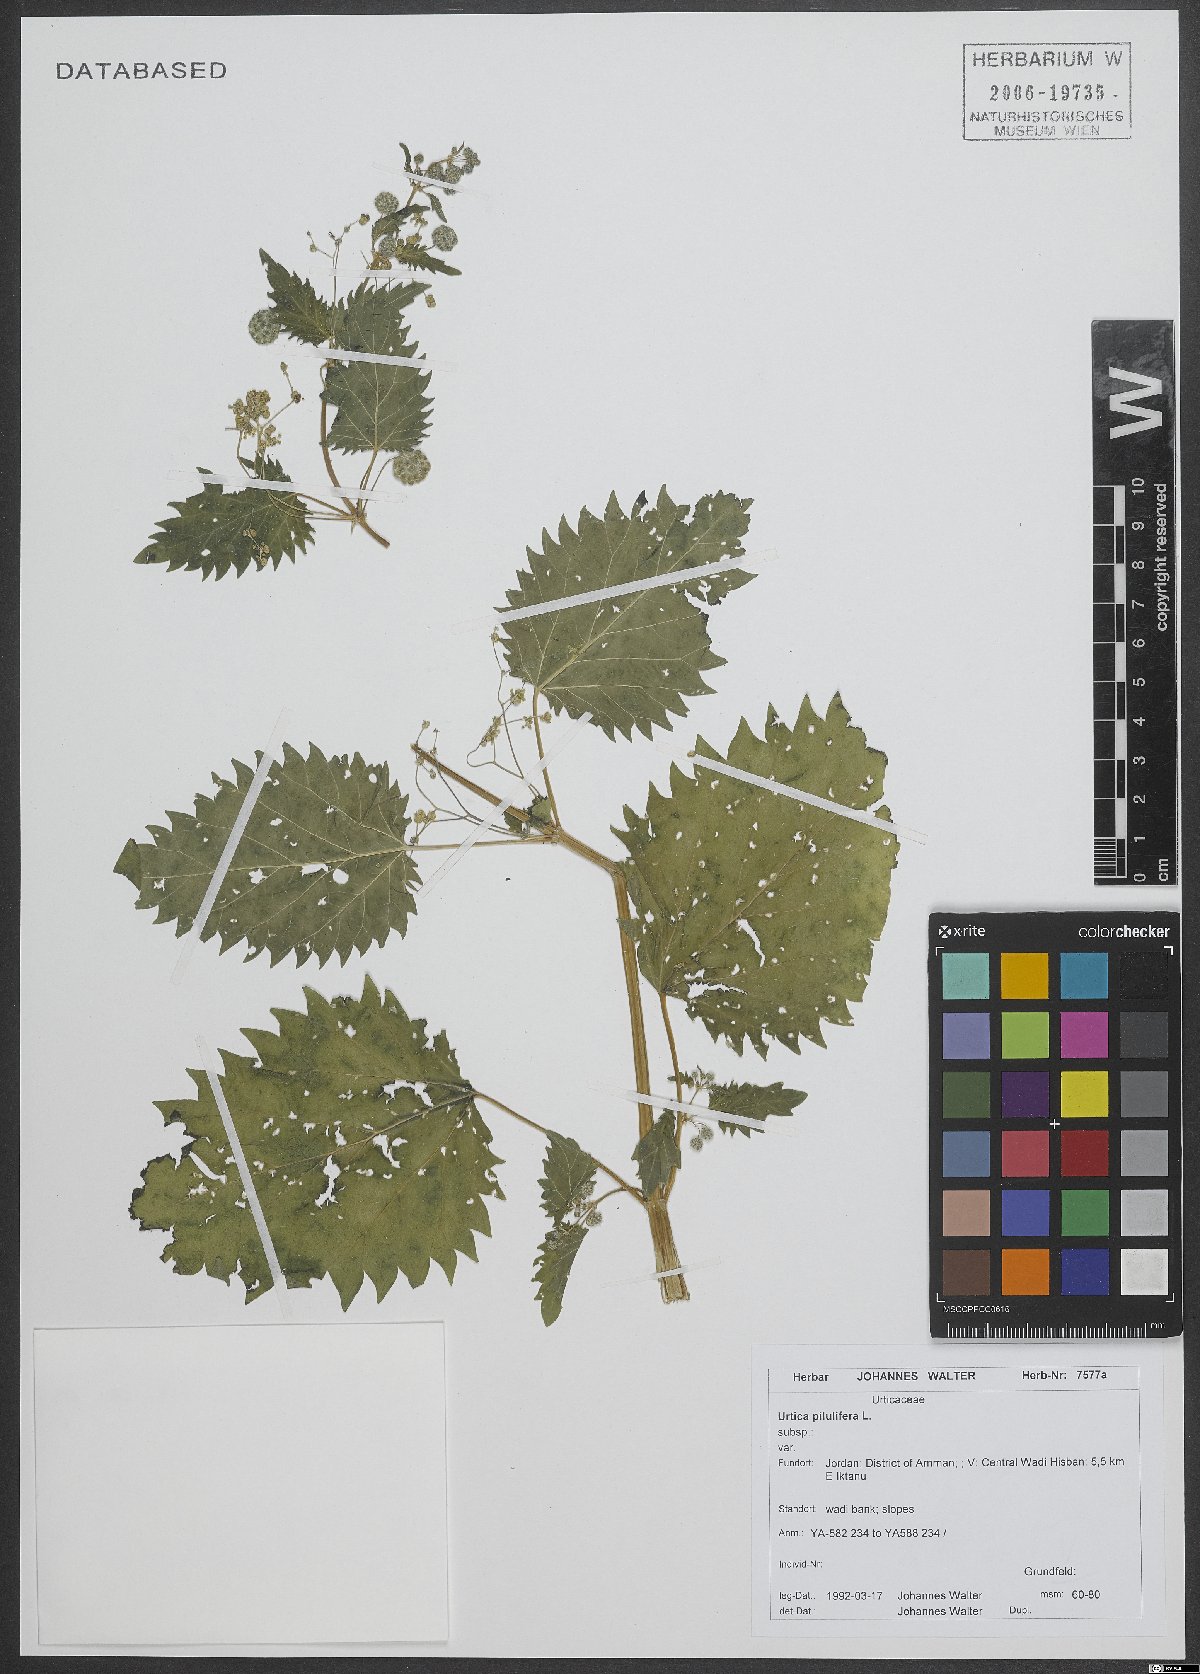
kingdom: Plantae
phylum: Tracheophyta
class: Magnoliopsida
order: Rosales
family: Urticaceae
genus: Urtica
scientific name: Urtica pilulifera
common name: Roman nettle
